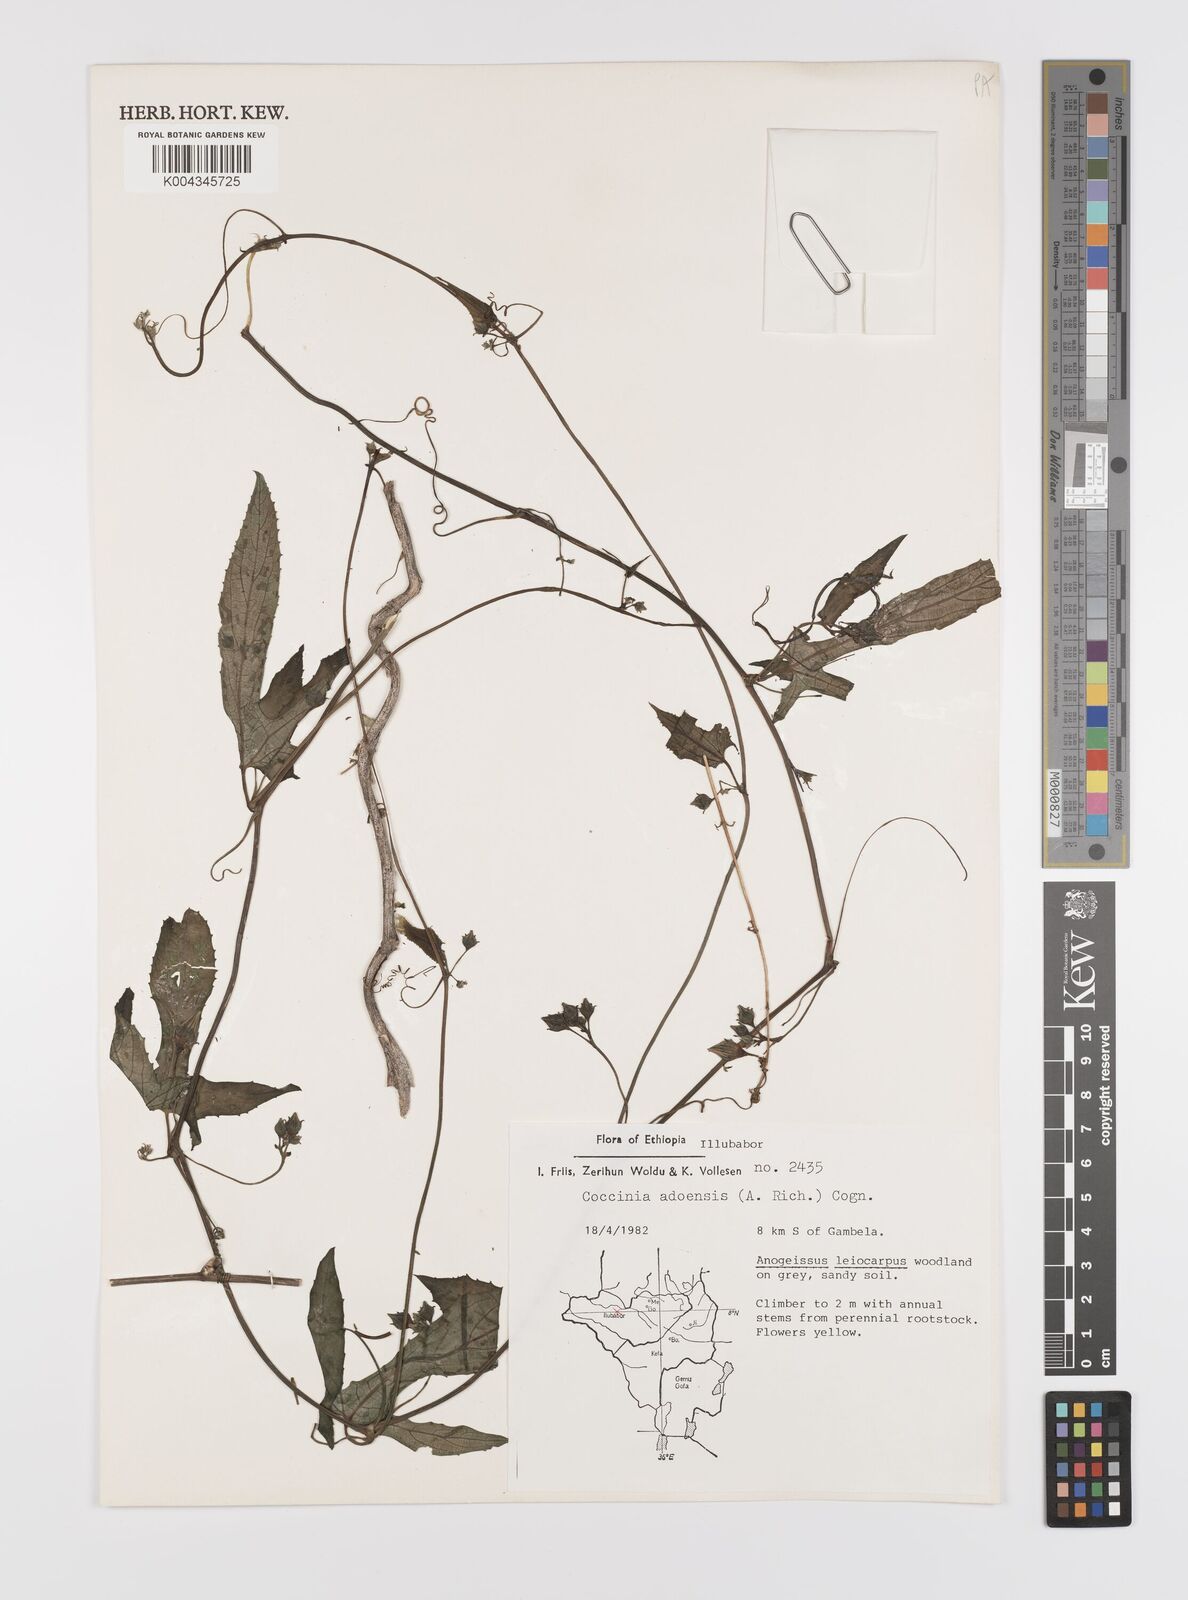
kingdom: Plantae
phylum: Tracheophyta
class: Magnoliopsida
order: Cucurbitales
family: Cucurbitaceae
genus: Coccinia
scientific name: Coccinia adoensis
